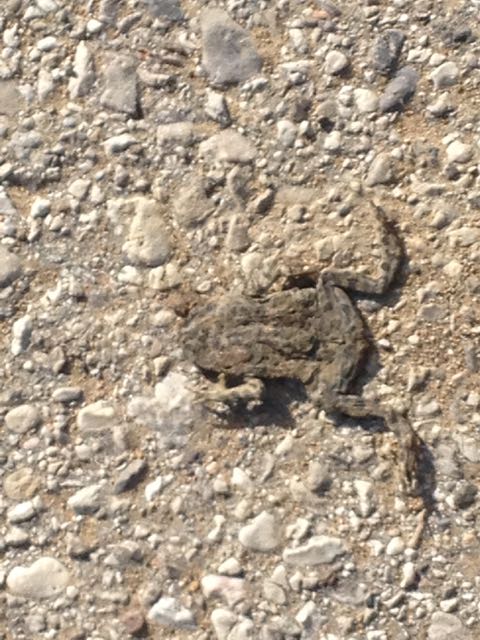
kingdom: Animalia
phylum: Chordata
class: Amphibia
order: Anura
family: Bufonidae
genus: Bufotes
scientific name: Bufotes viridis
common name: European green toad
